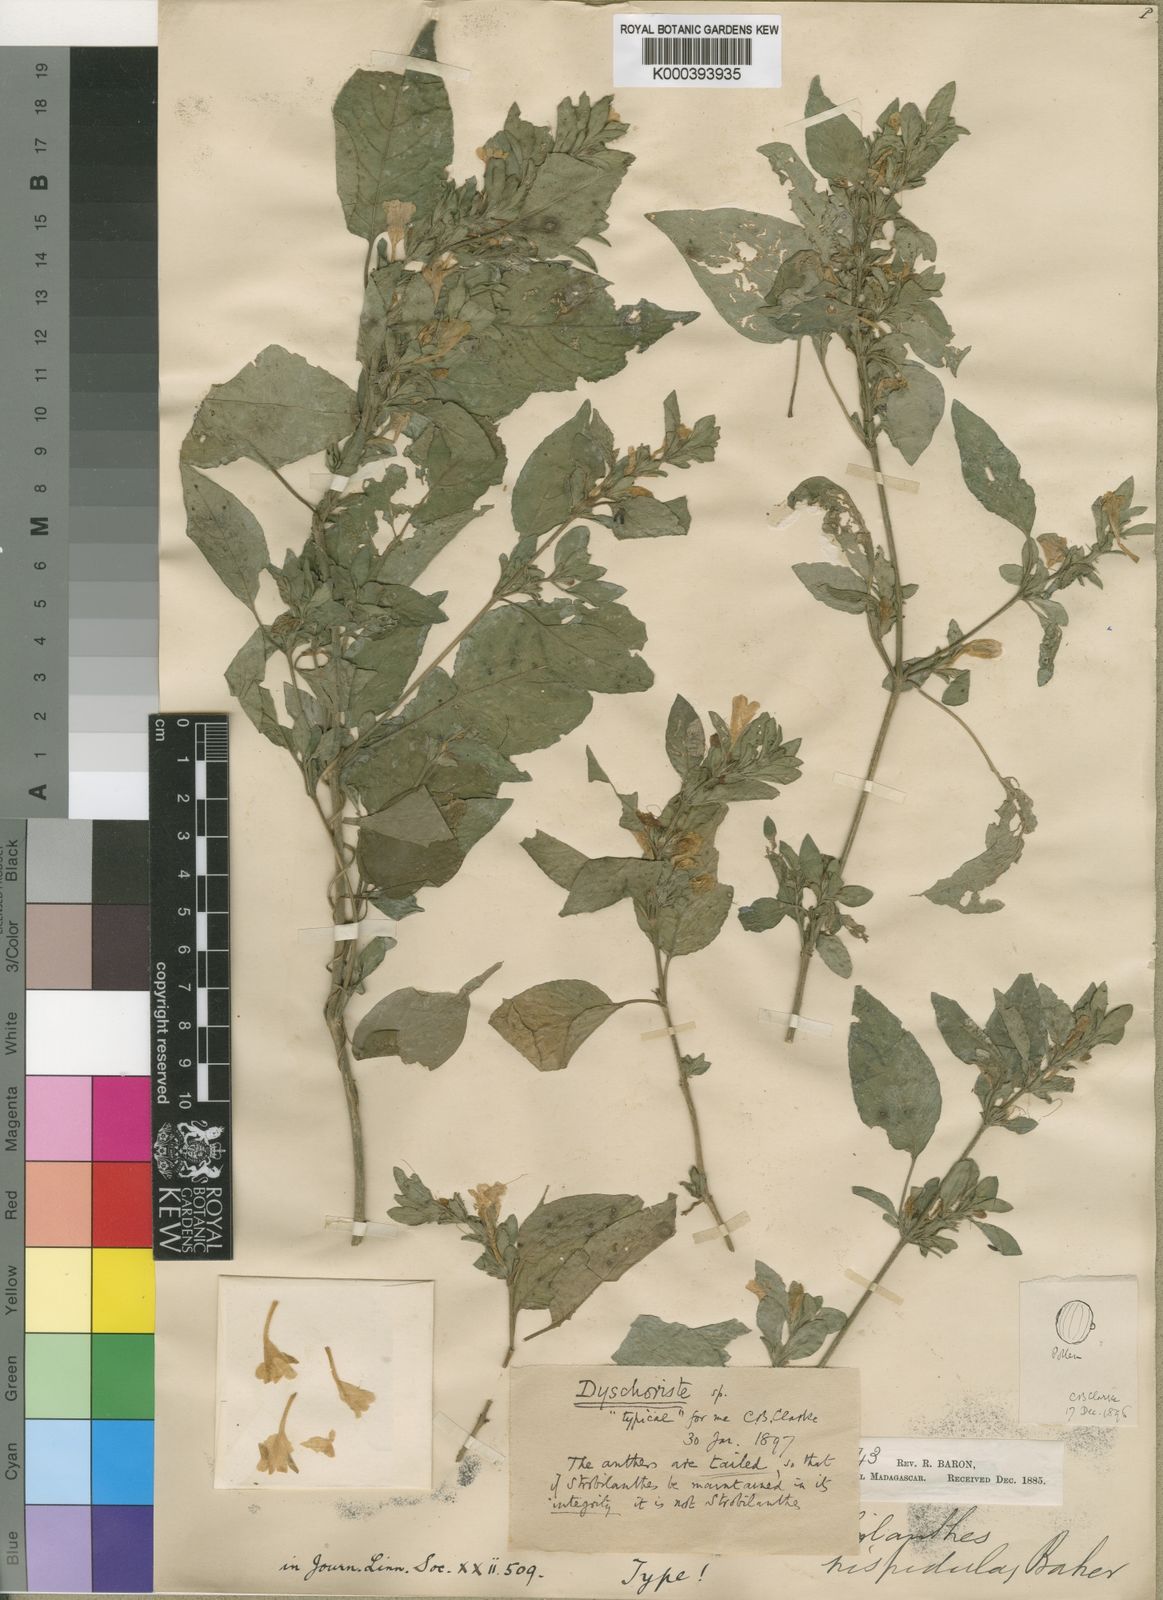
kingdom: Plantae
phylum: Tracheophyta
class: Magnoliopsida
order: Lamiales
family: Acanthaceae
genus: Dyschoriste
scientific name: Dyschoriste hispidula
